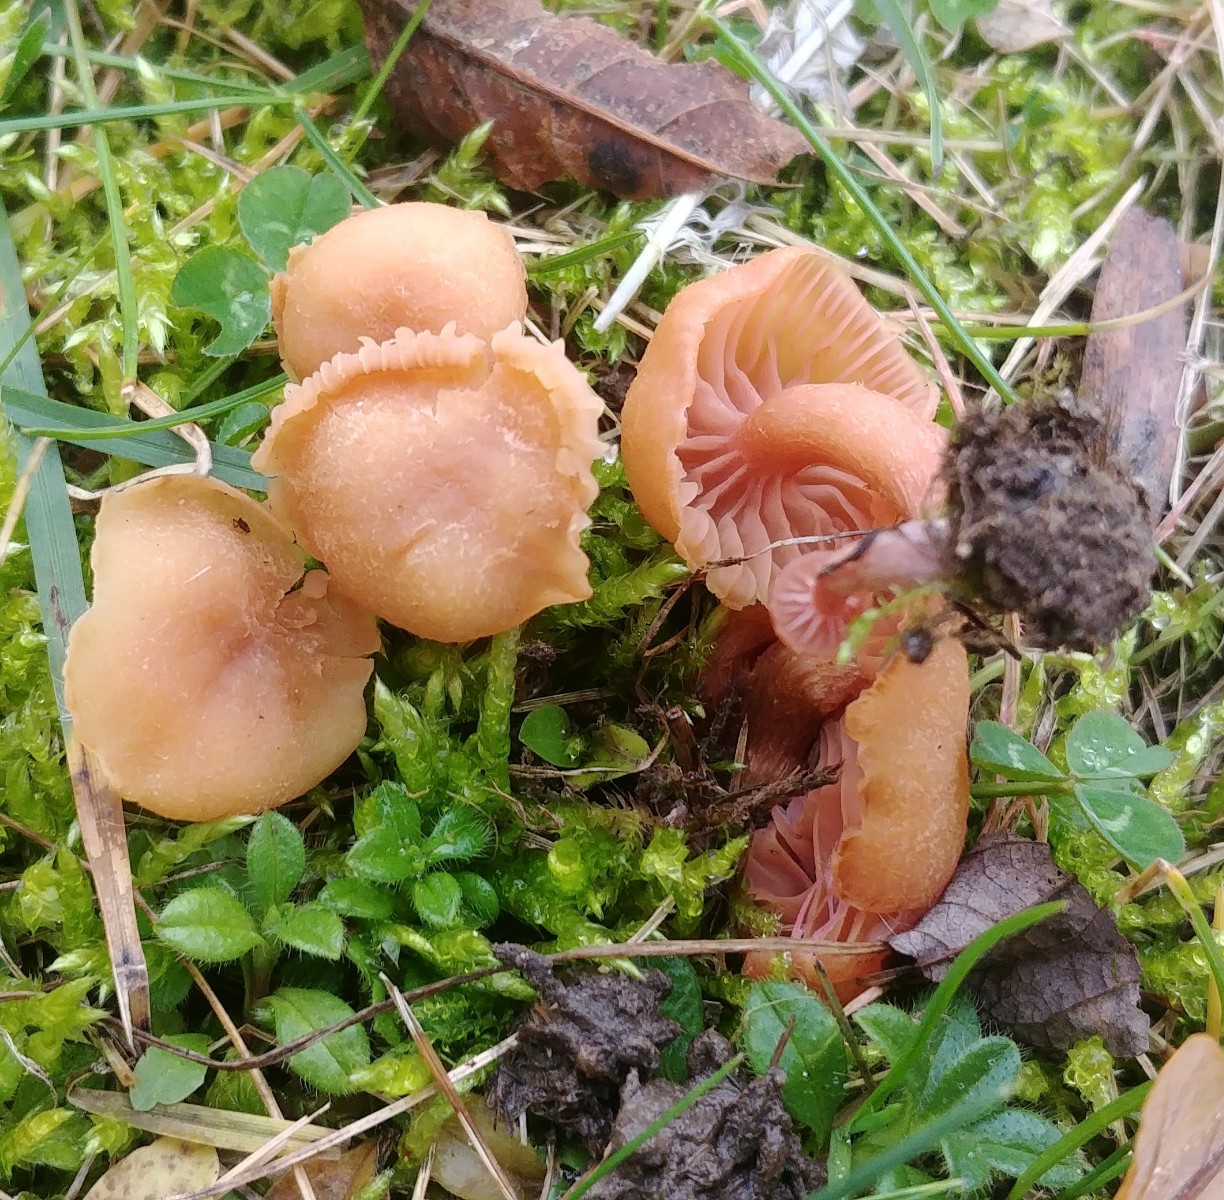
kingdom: Fungi
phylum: Basidiomycota
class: Agaricomycetes
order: Agaricales
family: Hydnangiaceae
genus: Laccaria
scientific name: Laccaria laccata
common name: rød ametysthat
